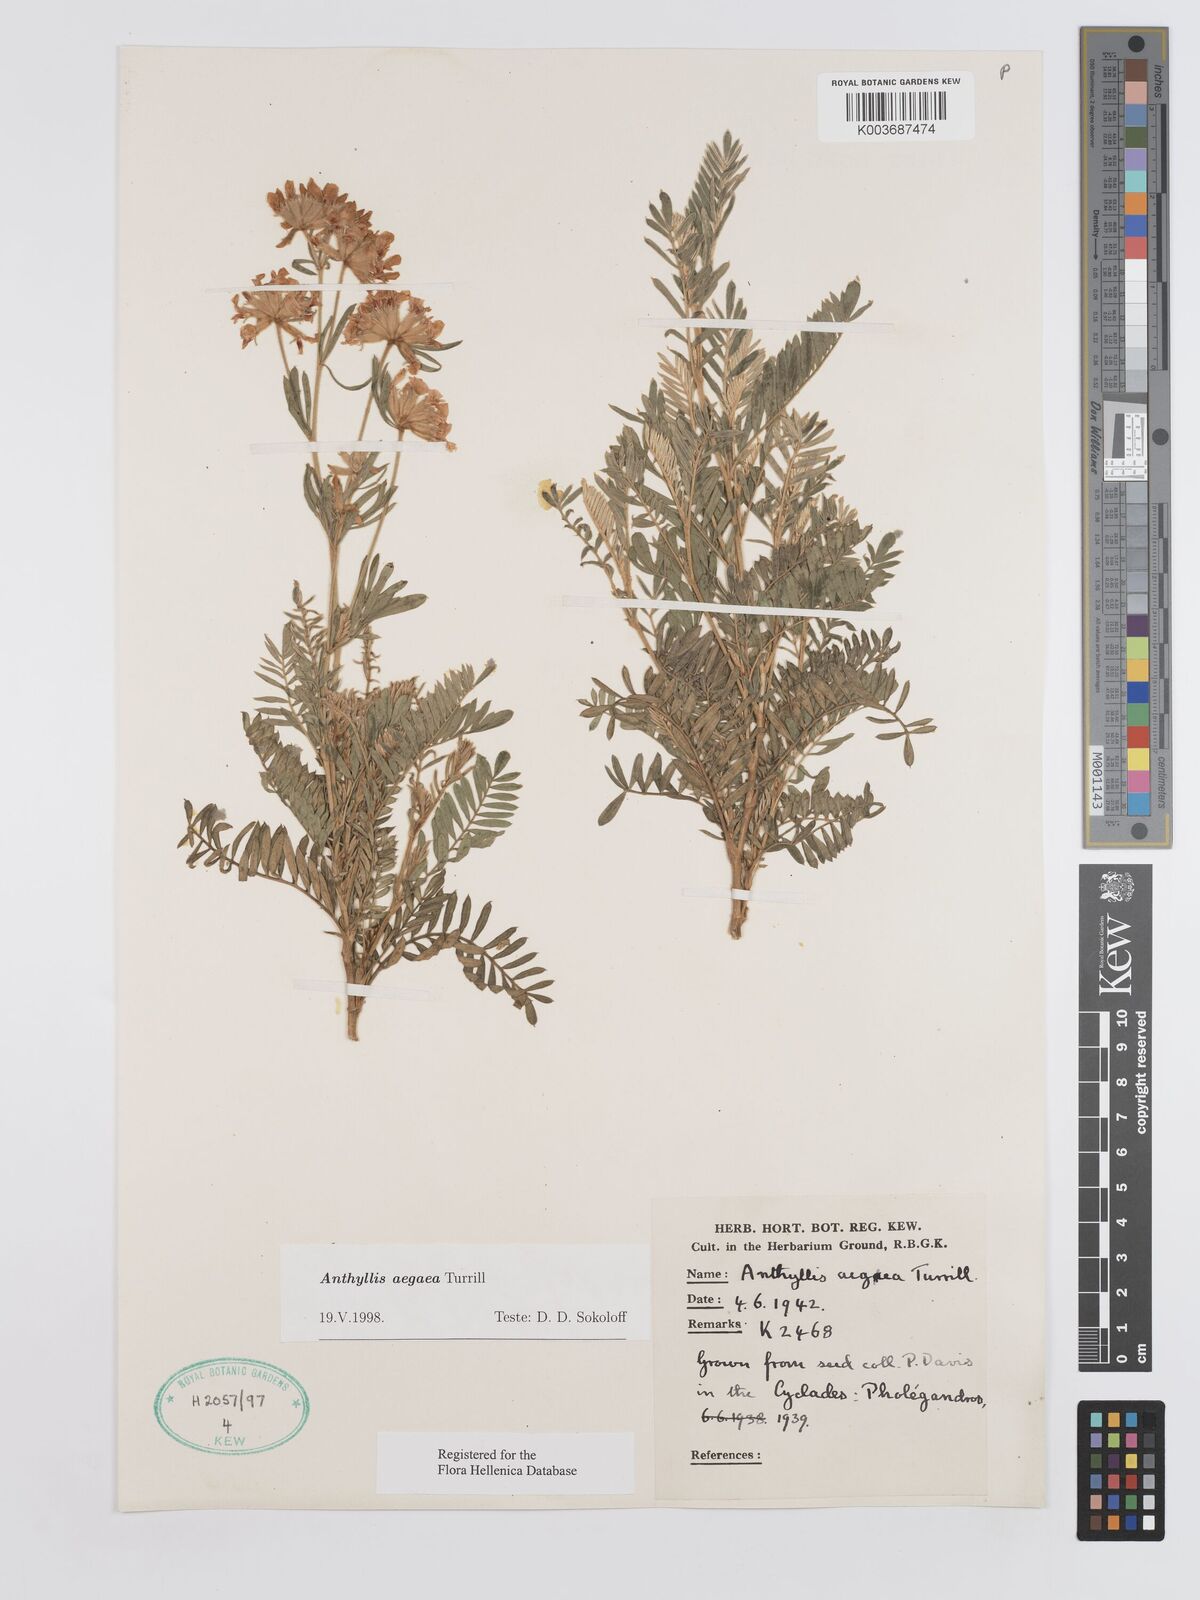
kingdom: Plantae
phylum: Tracheophyta
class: Magnoliopsida
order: Fabales
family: Fabaceae
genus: Anthyllis
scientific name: Anthyllis splendens
